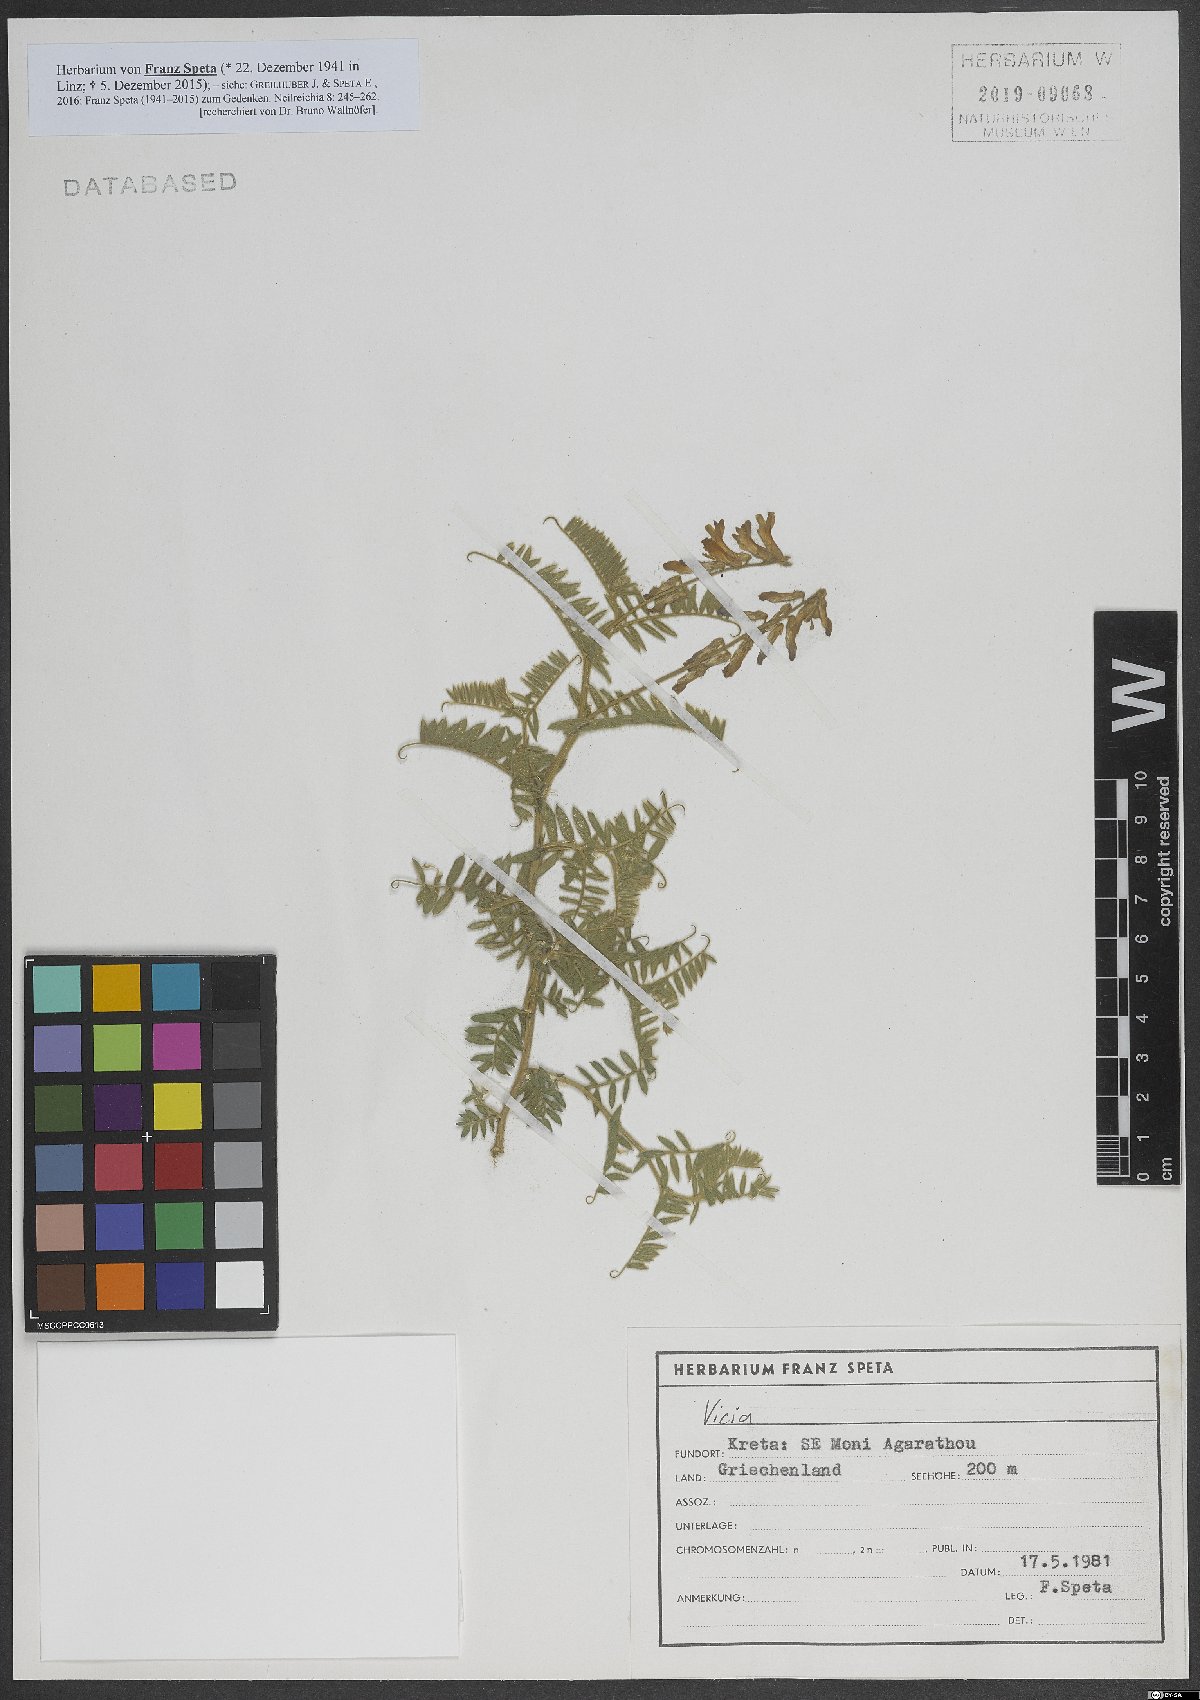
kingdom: Plantae
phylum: Tracheophyta
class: Magnoliopsida
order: Fabales
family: Fabaceae
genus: Vicia
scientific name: Vicia
